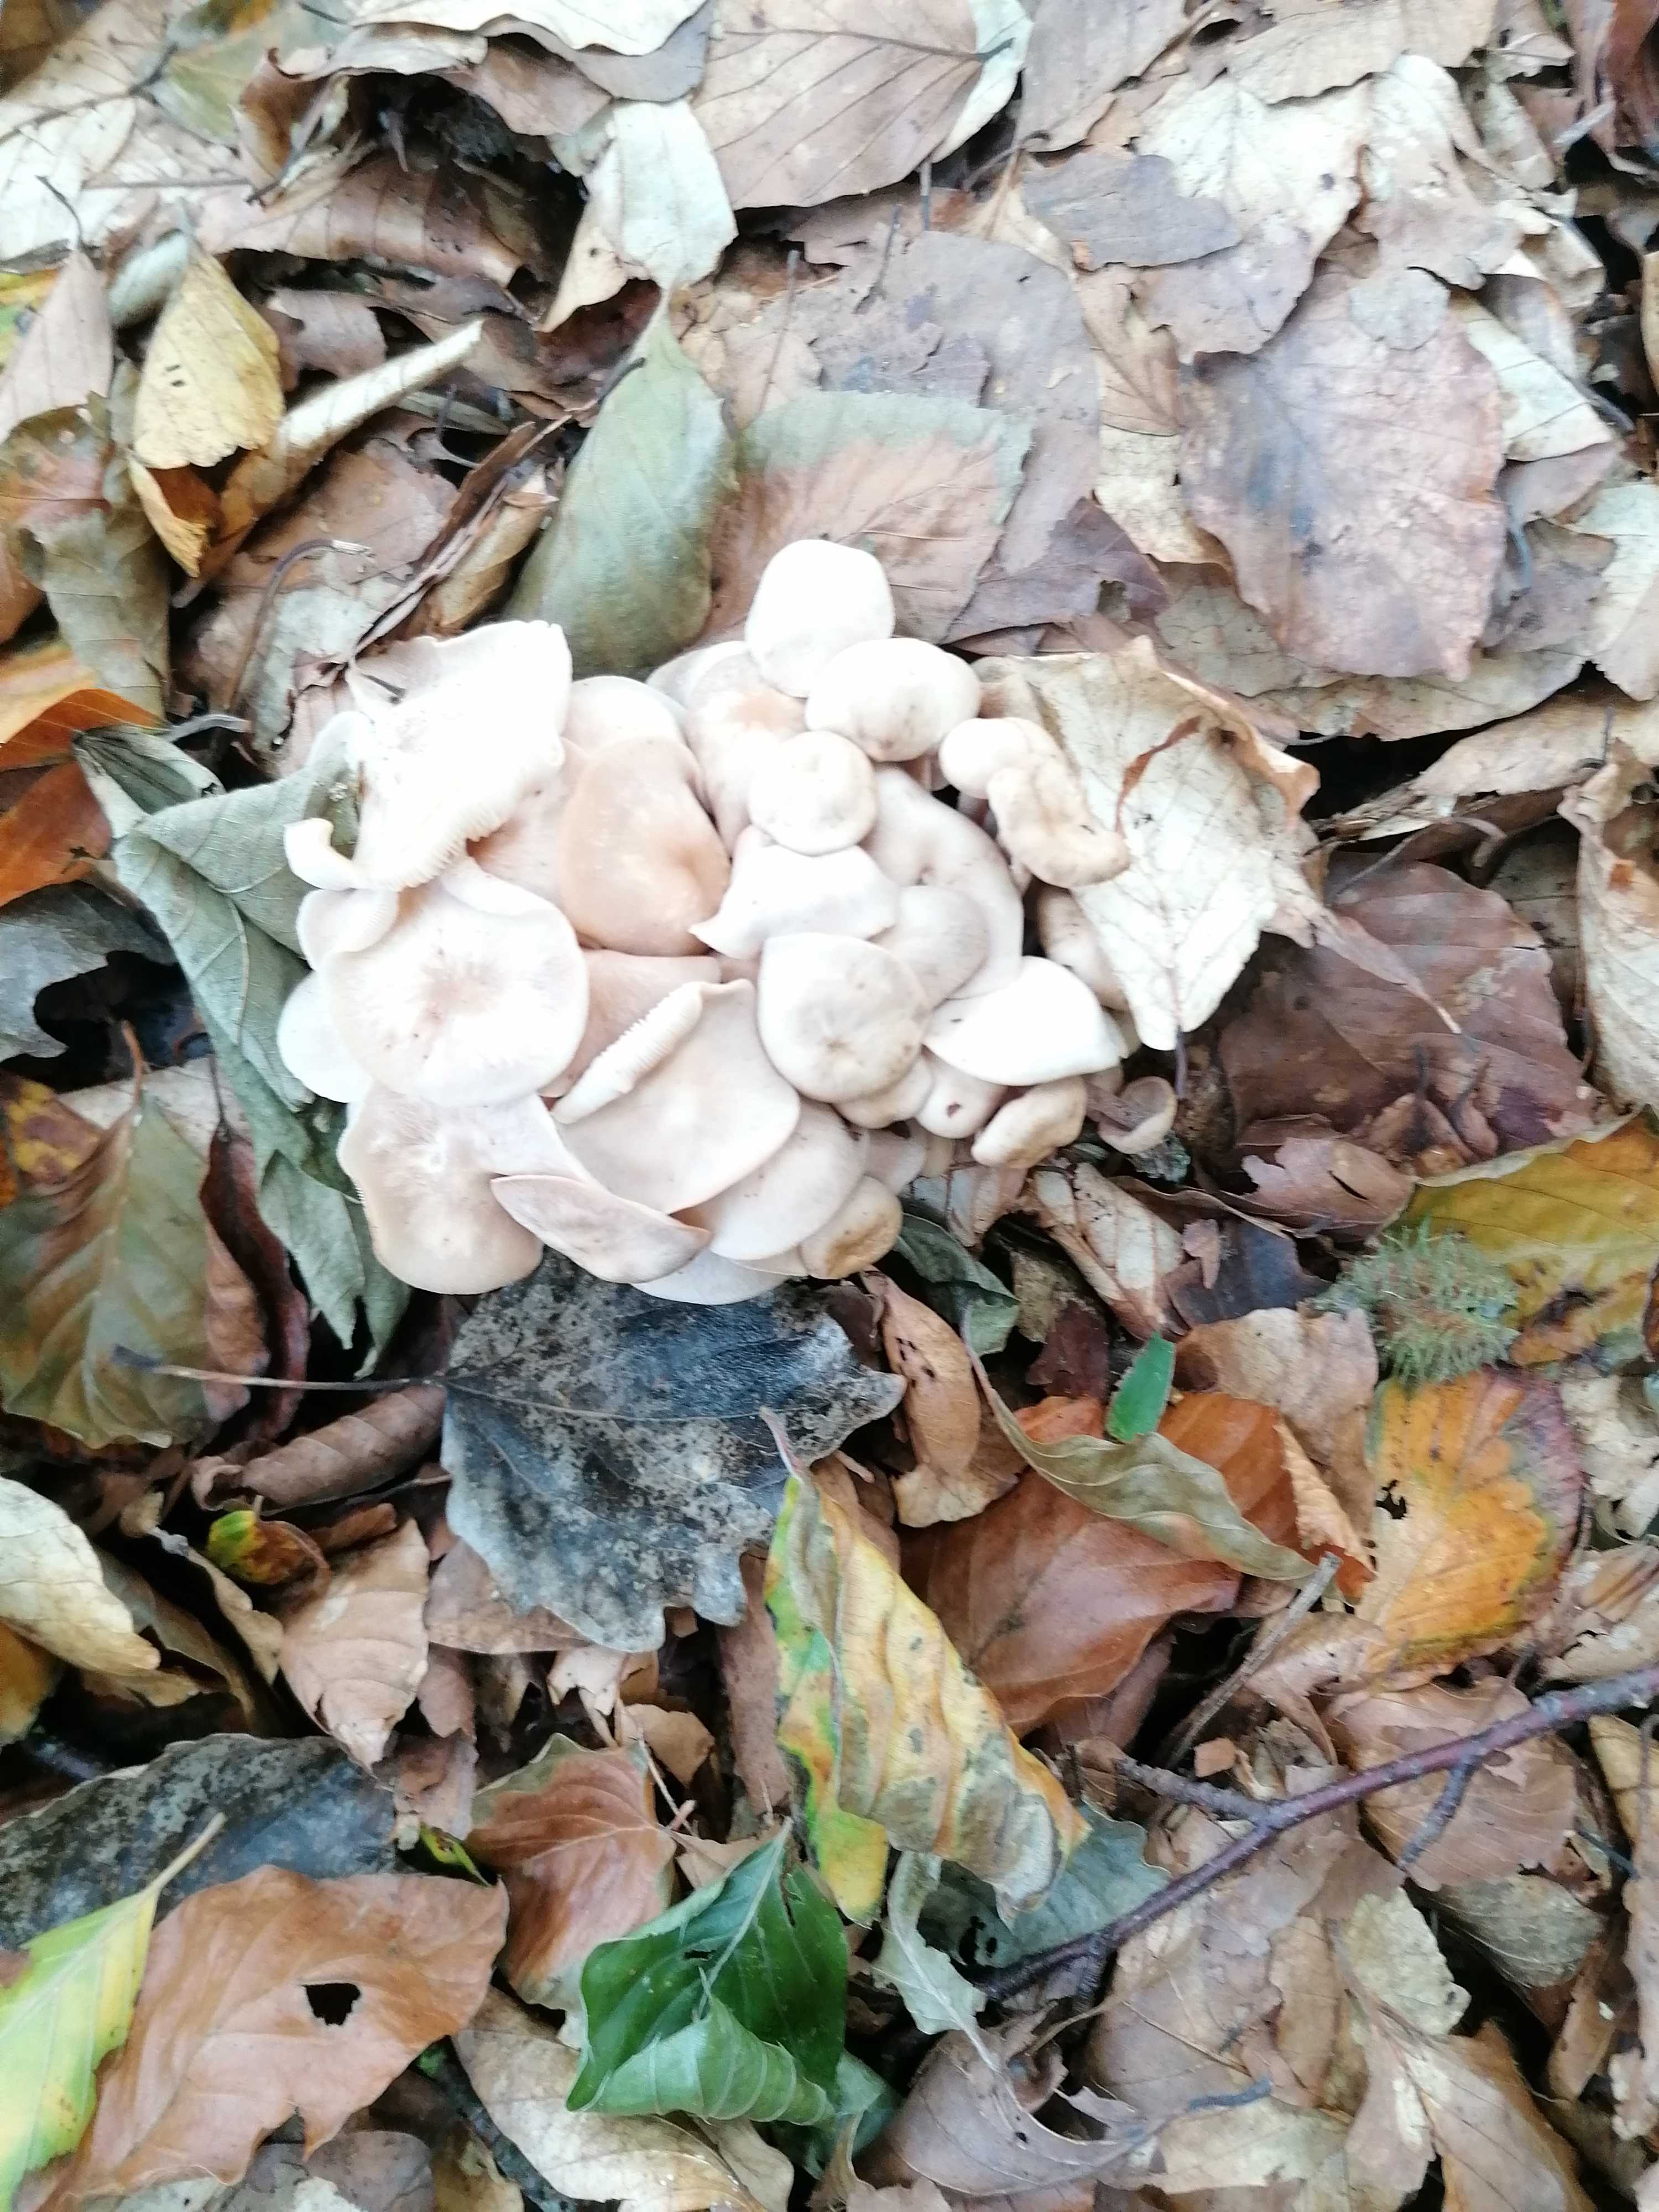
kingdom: Fungi
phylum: Basidiomycota
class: Agaricomycetes
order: Agaricales
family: Omphalotaceae
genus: Collybiopsis
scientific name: Collybiopsis confluens
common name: knippe-fladhat
